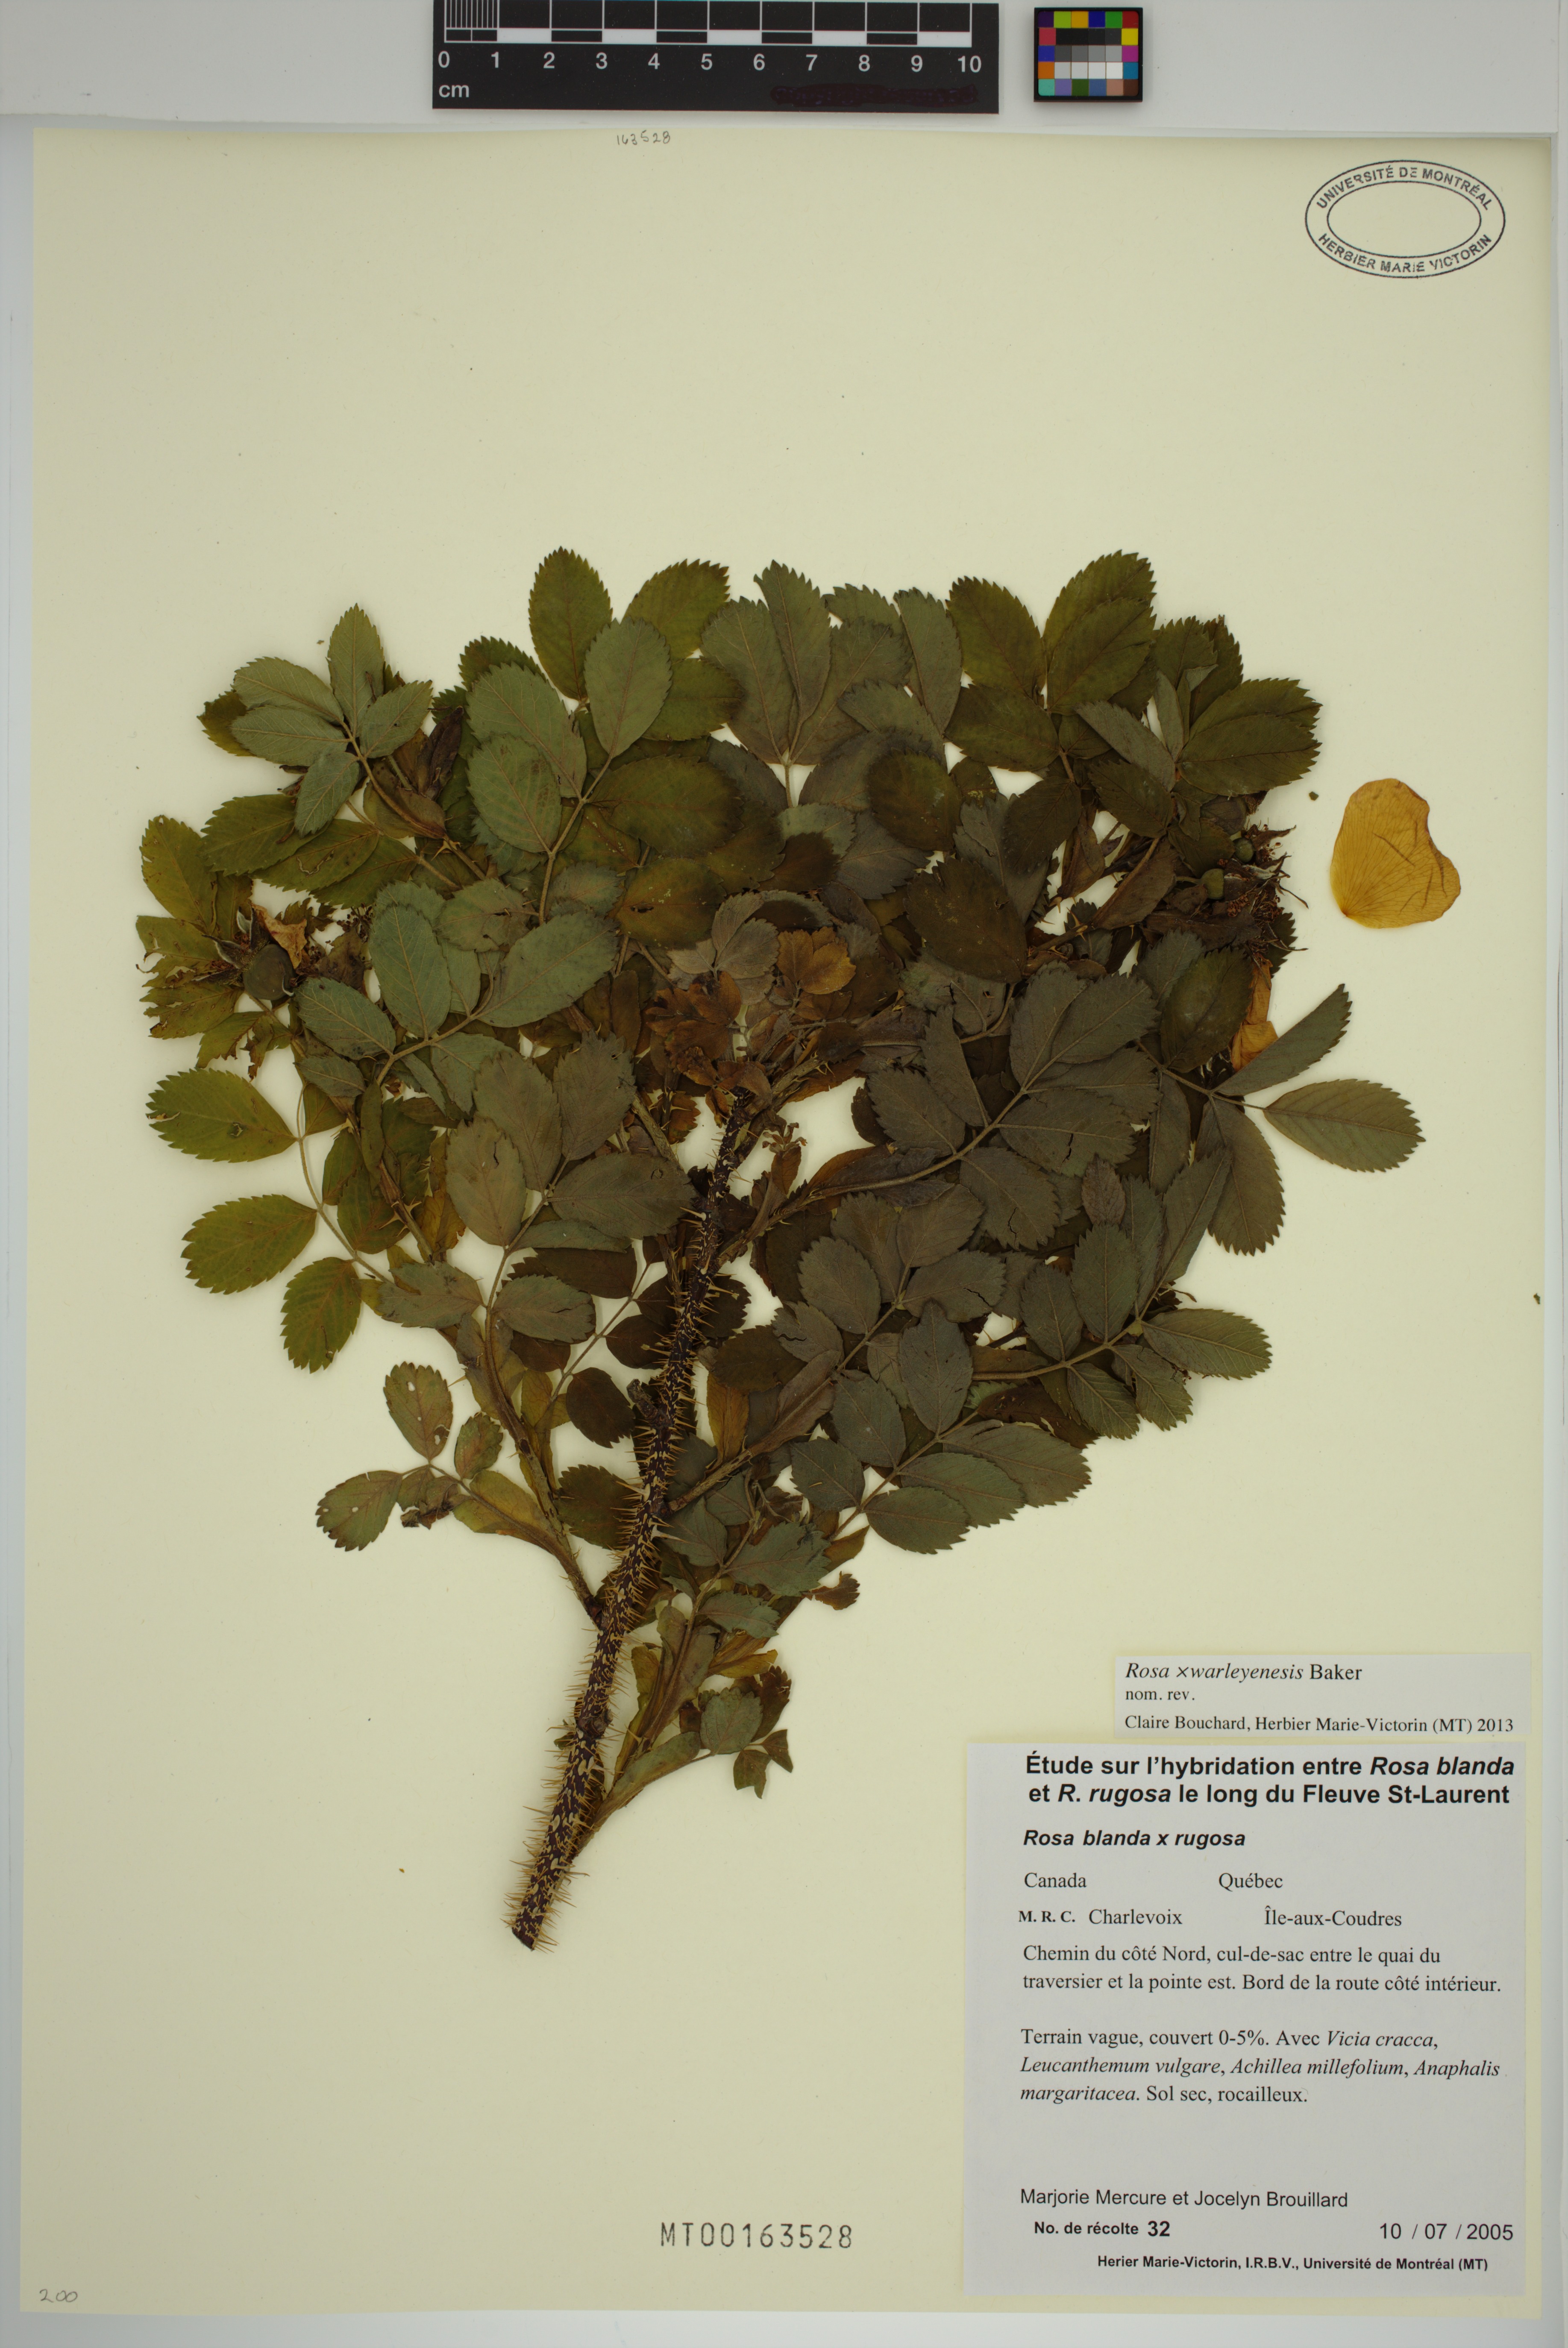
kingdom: Plantae
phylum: Tracheophyta
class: Magnoliopsida
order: Rosales
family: Rosaceae
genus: Rosa
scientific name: Rosa warleyensis
